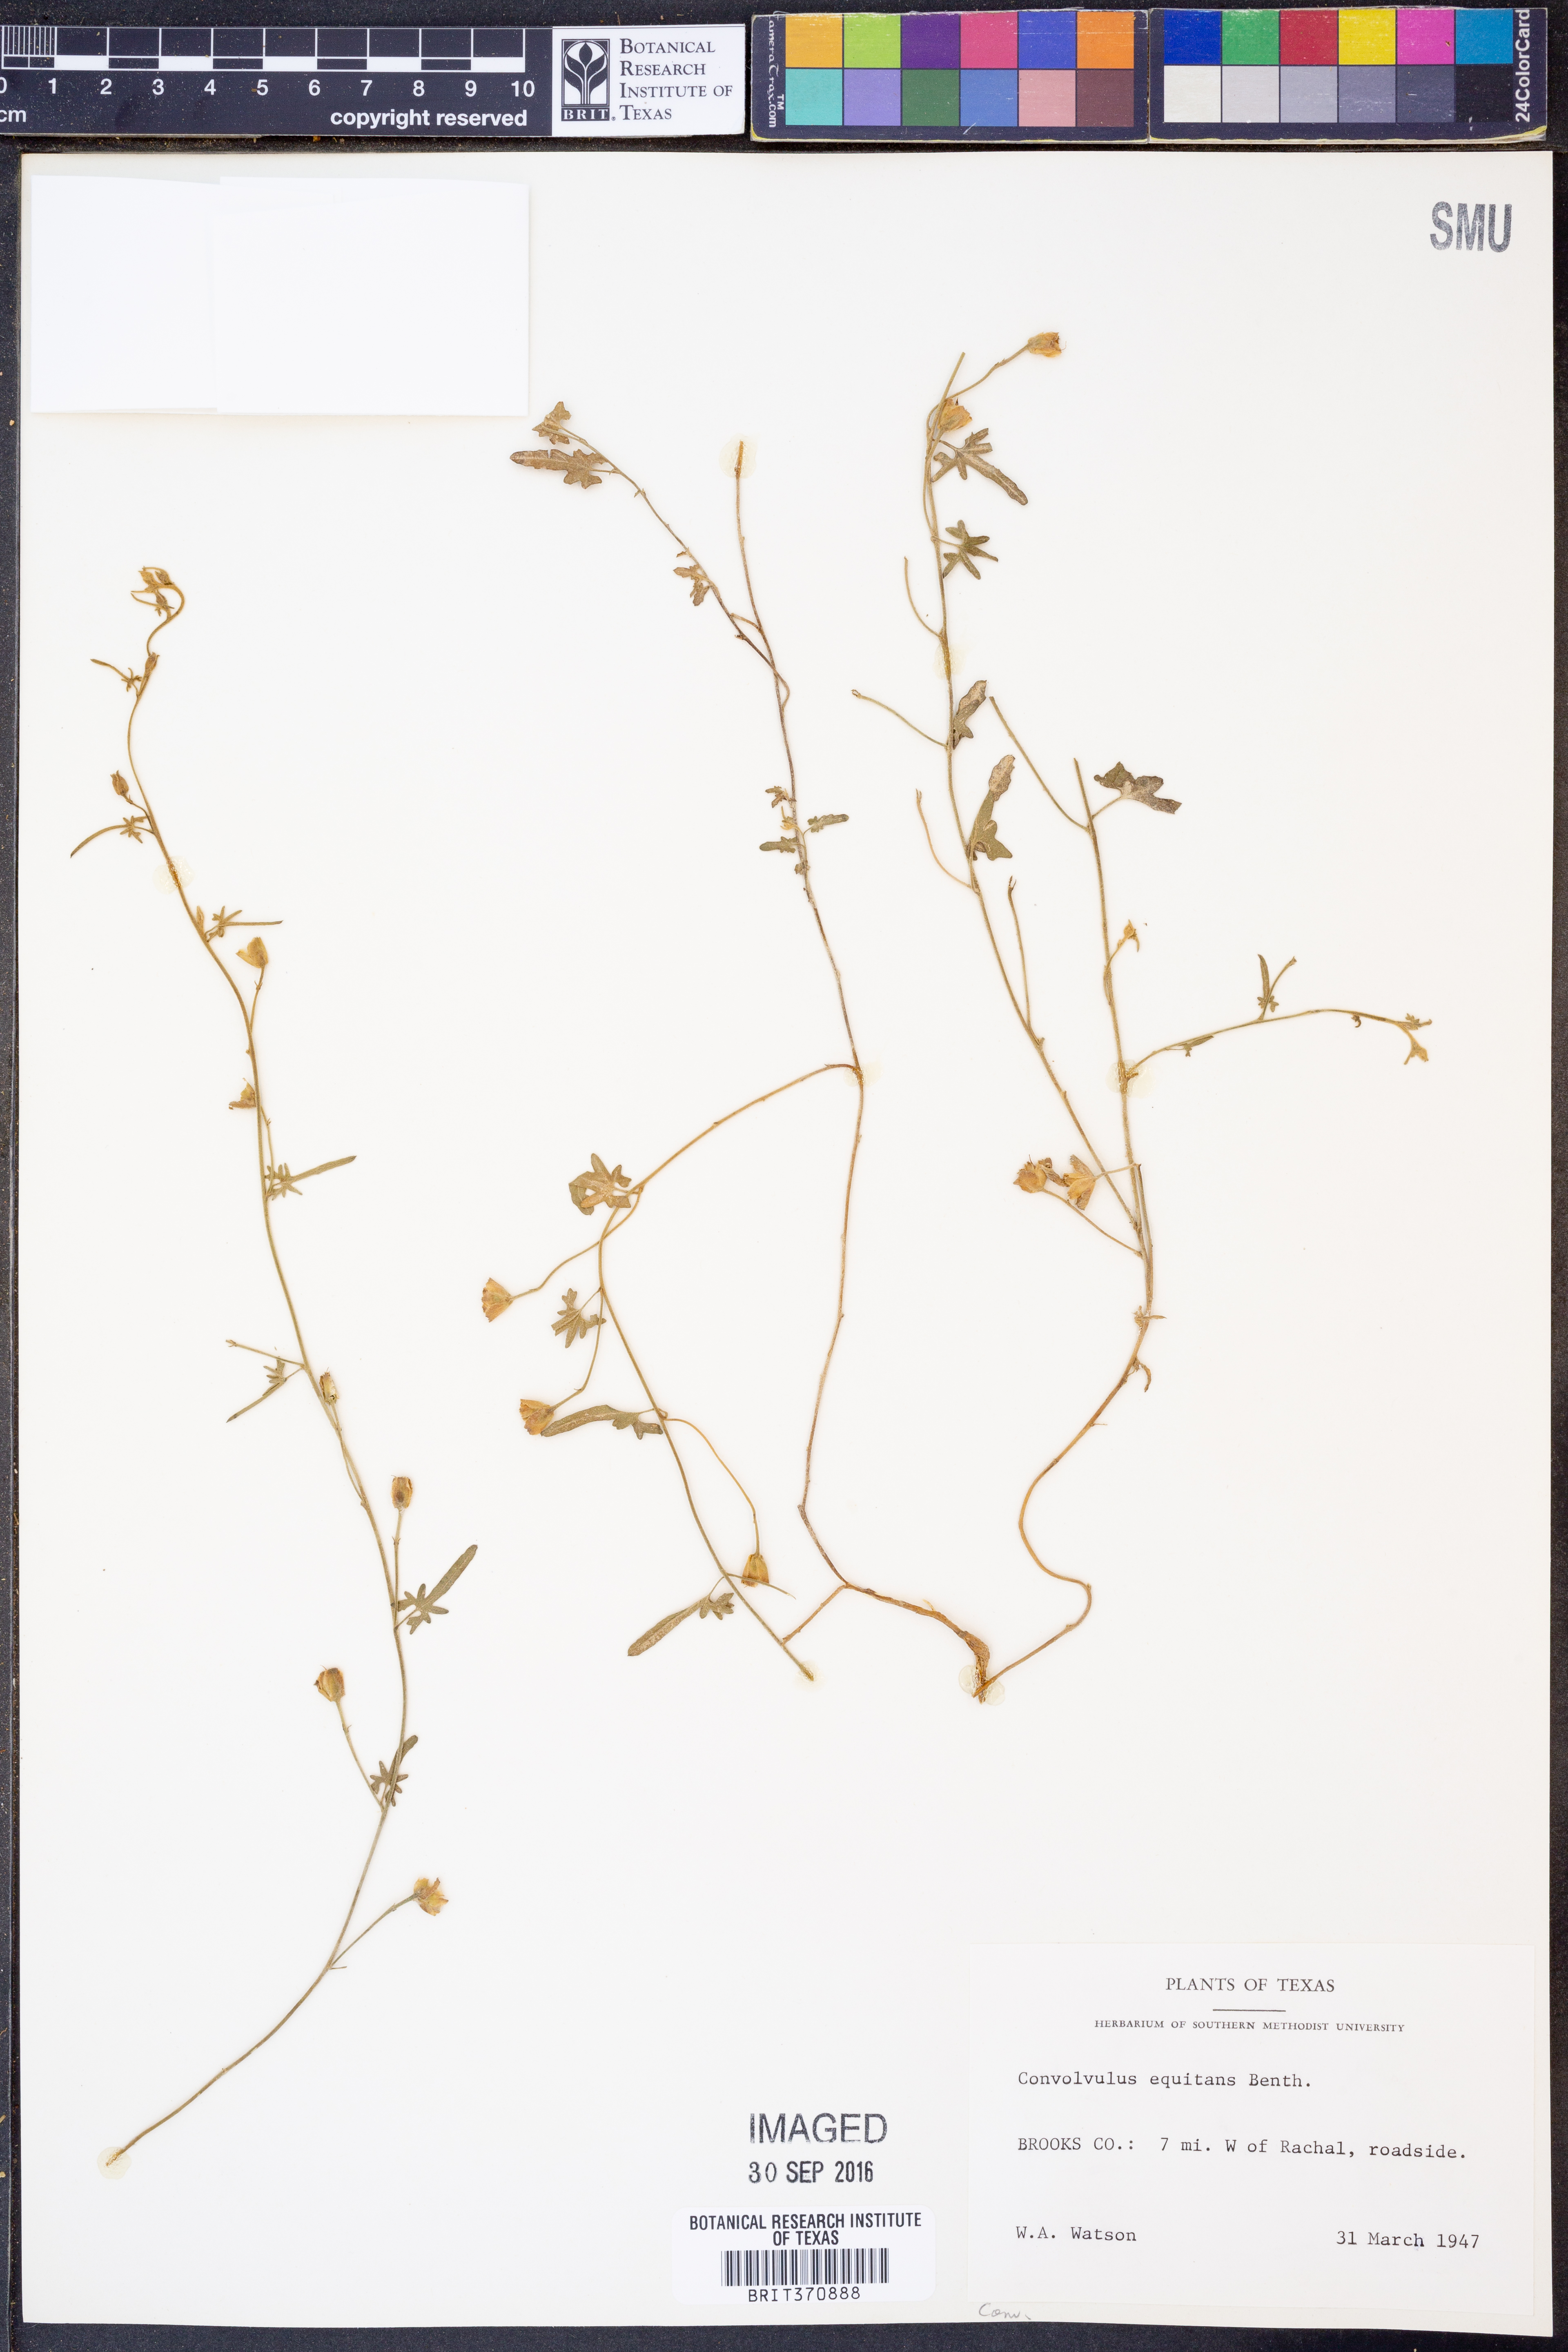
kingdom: Plantae
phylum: Tracheophyta
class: Magnoliopsida
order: Solanales
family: Convolvulaceae
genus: Convolvulus
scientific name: Convolvulus equitans
